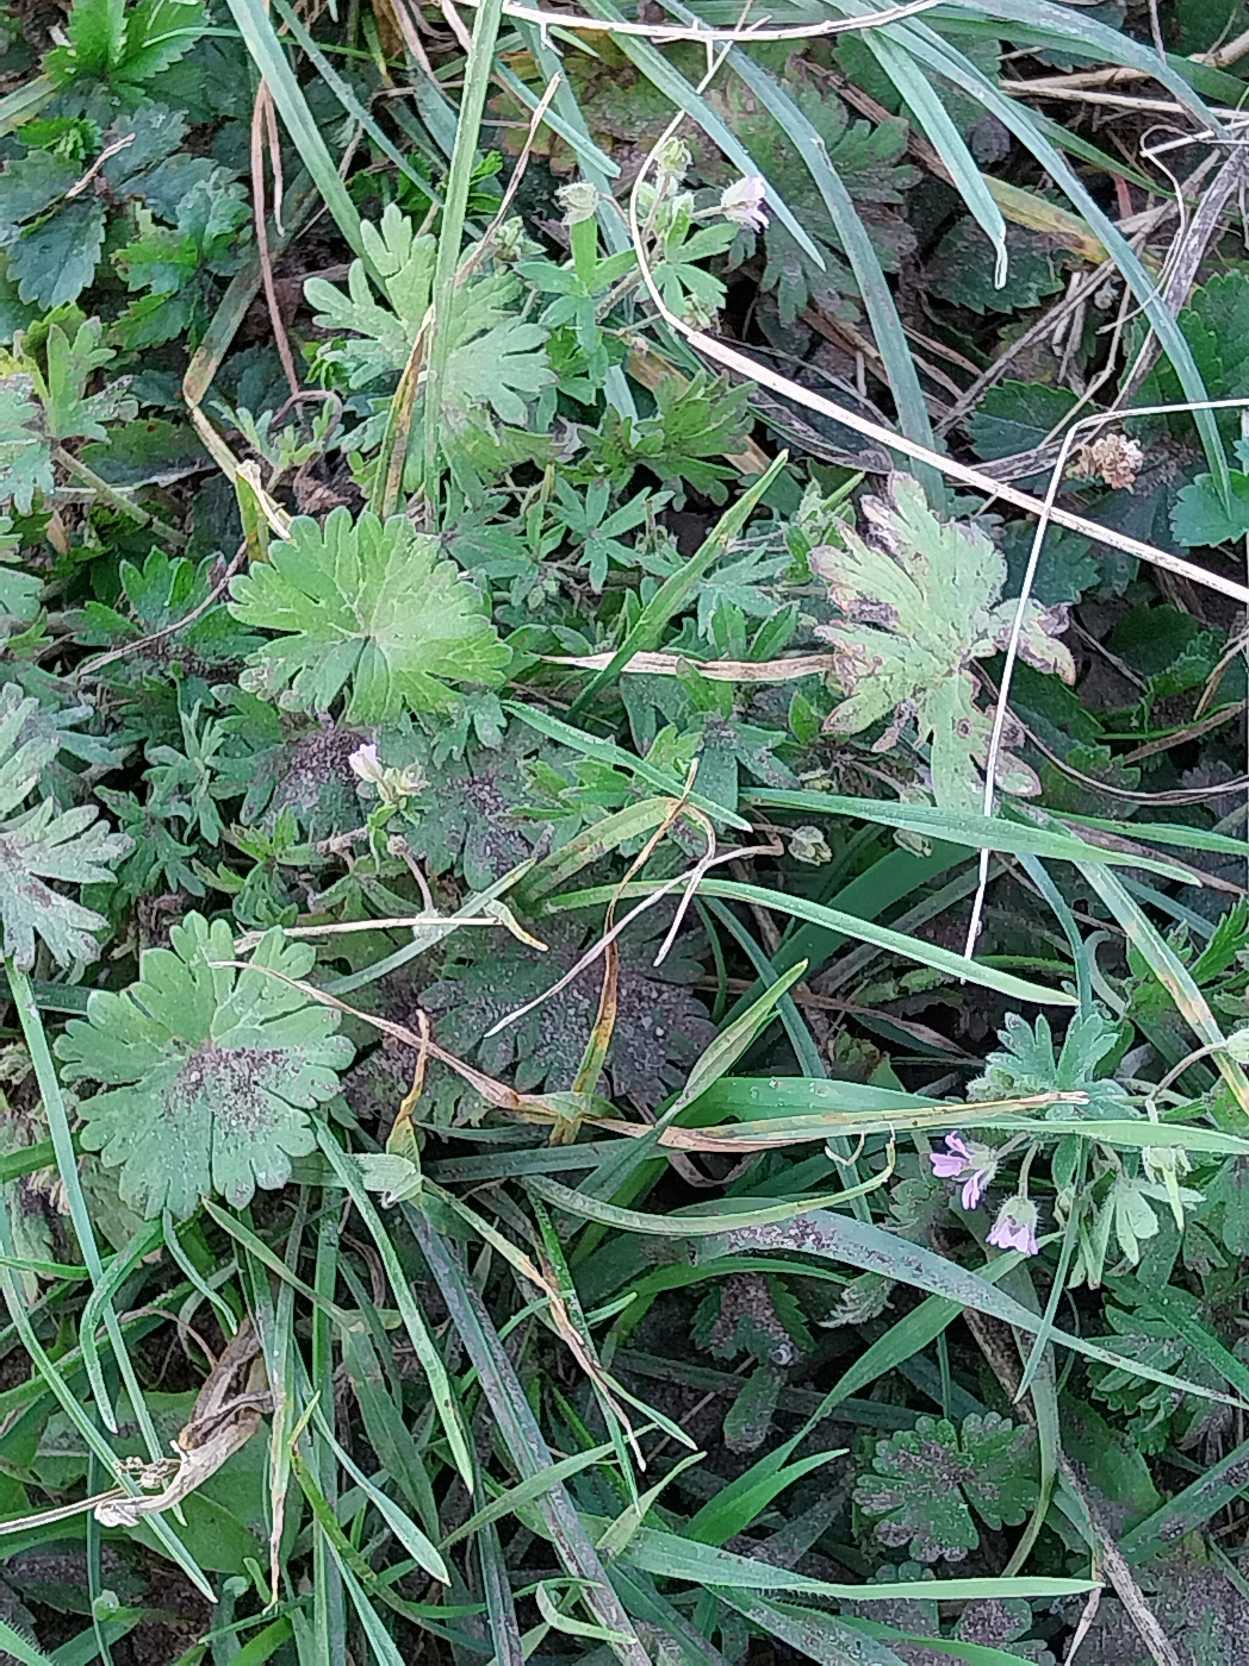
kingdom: Plantae
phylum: Tracheophyta
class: Magnoliopsida
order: Geraniales
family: Geraniaceae
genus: Geranium
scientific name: Geranium pusillum
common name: Liden storkenæb
